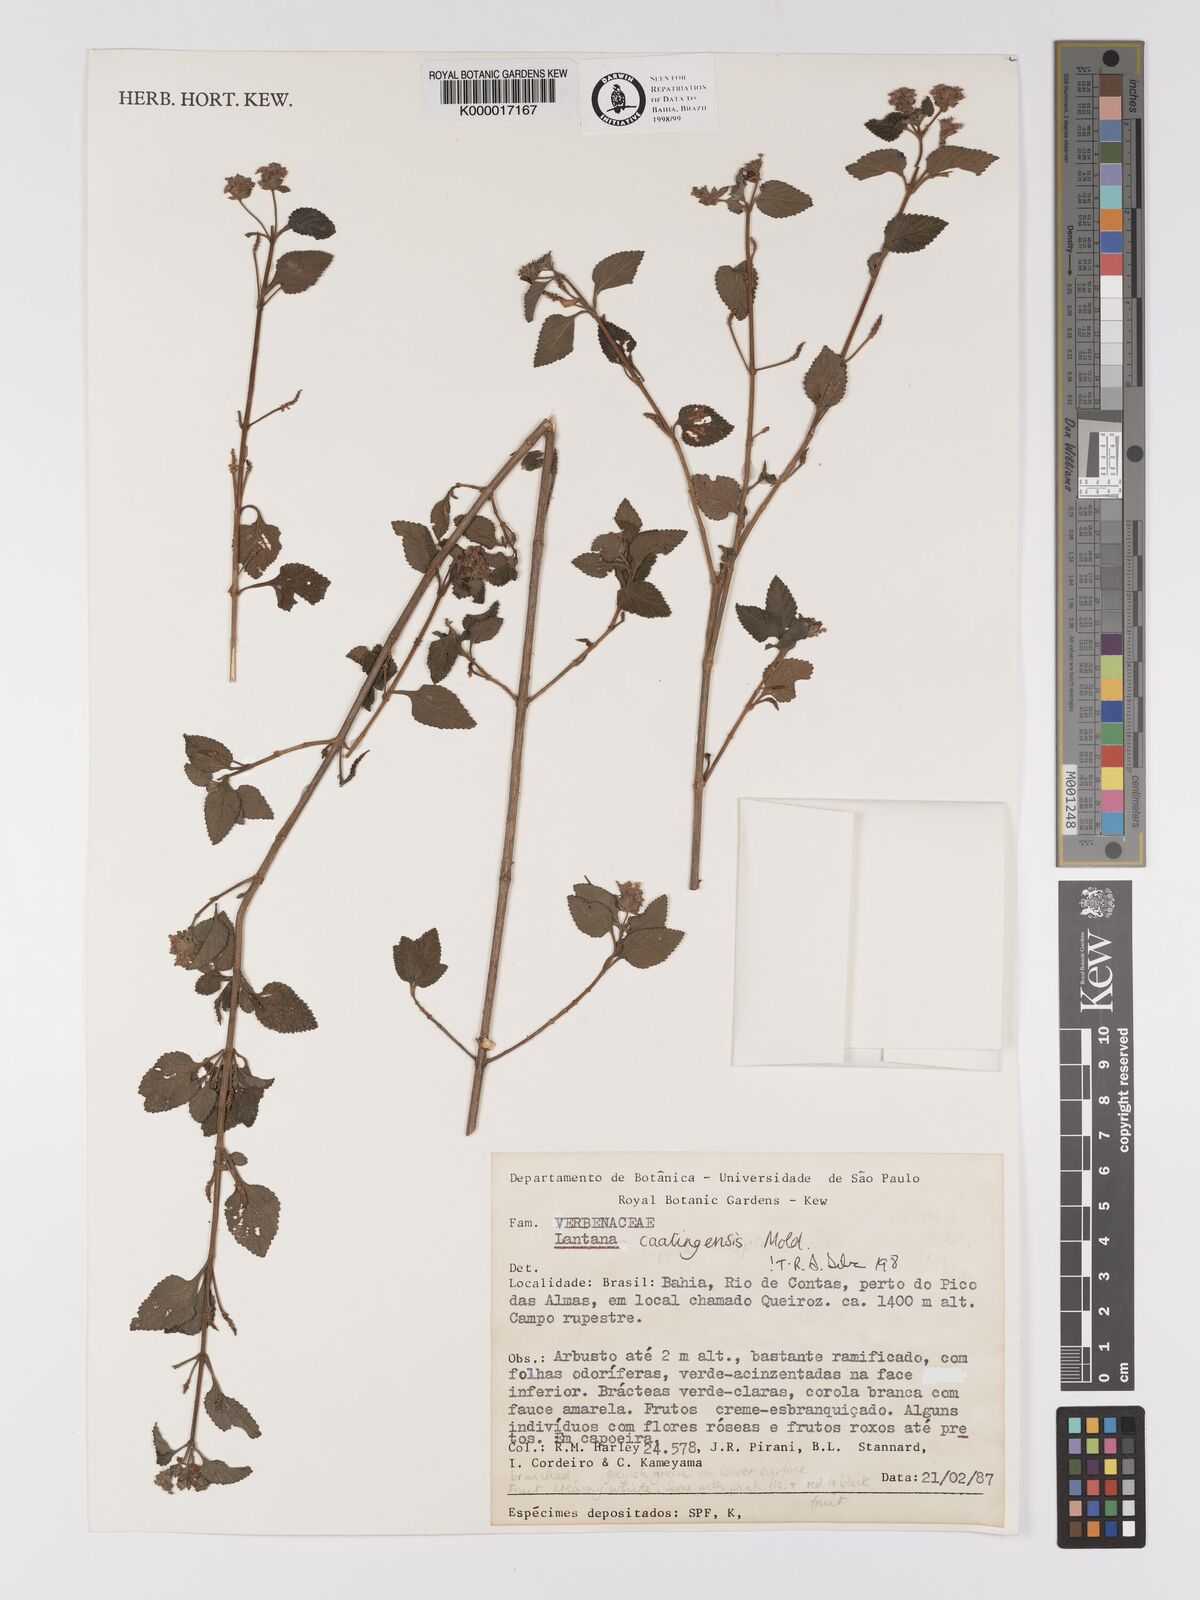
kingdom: Plantae
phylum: Tracheophyta
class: Magnoliopsida
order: Lamiales
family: Verbenaceae
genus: Lantana
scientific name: Lantana caatingensis
